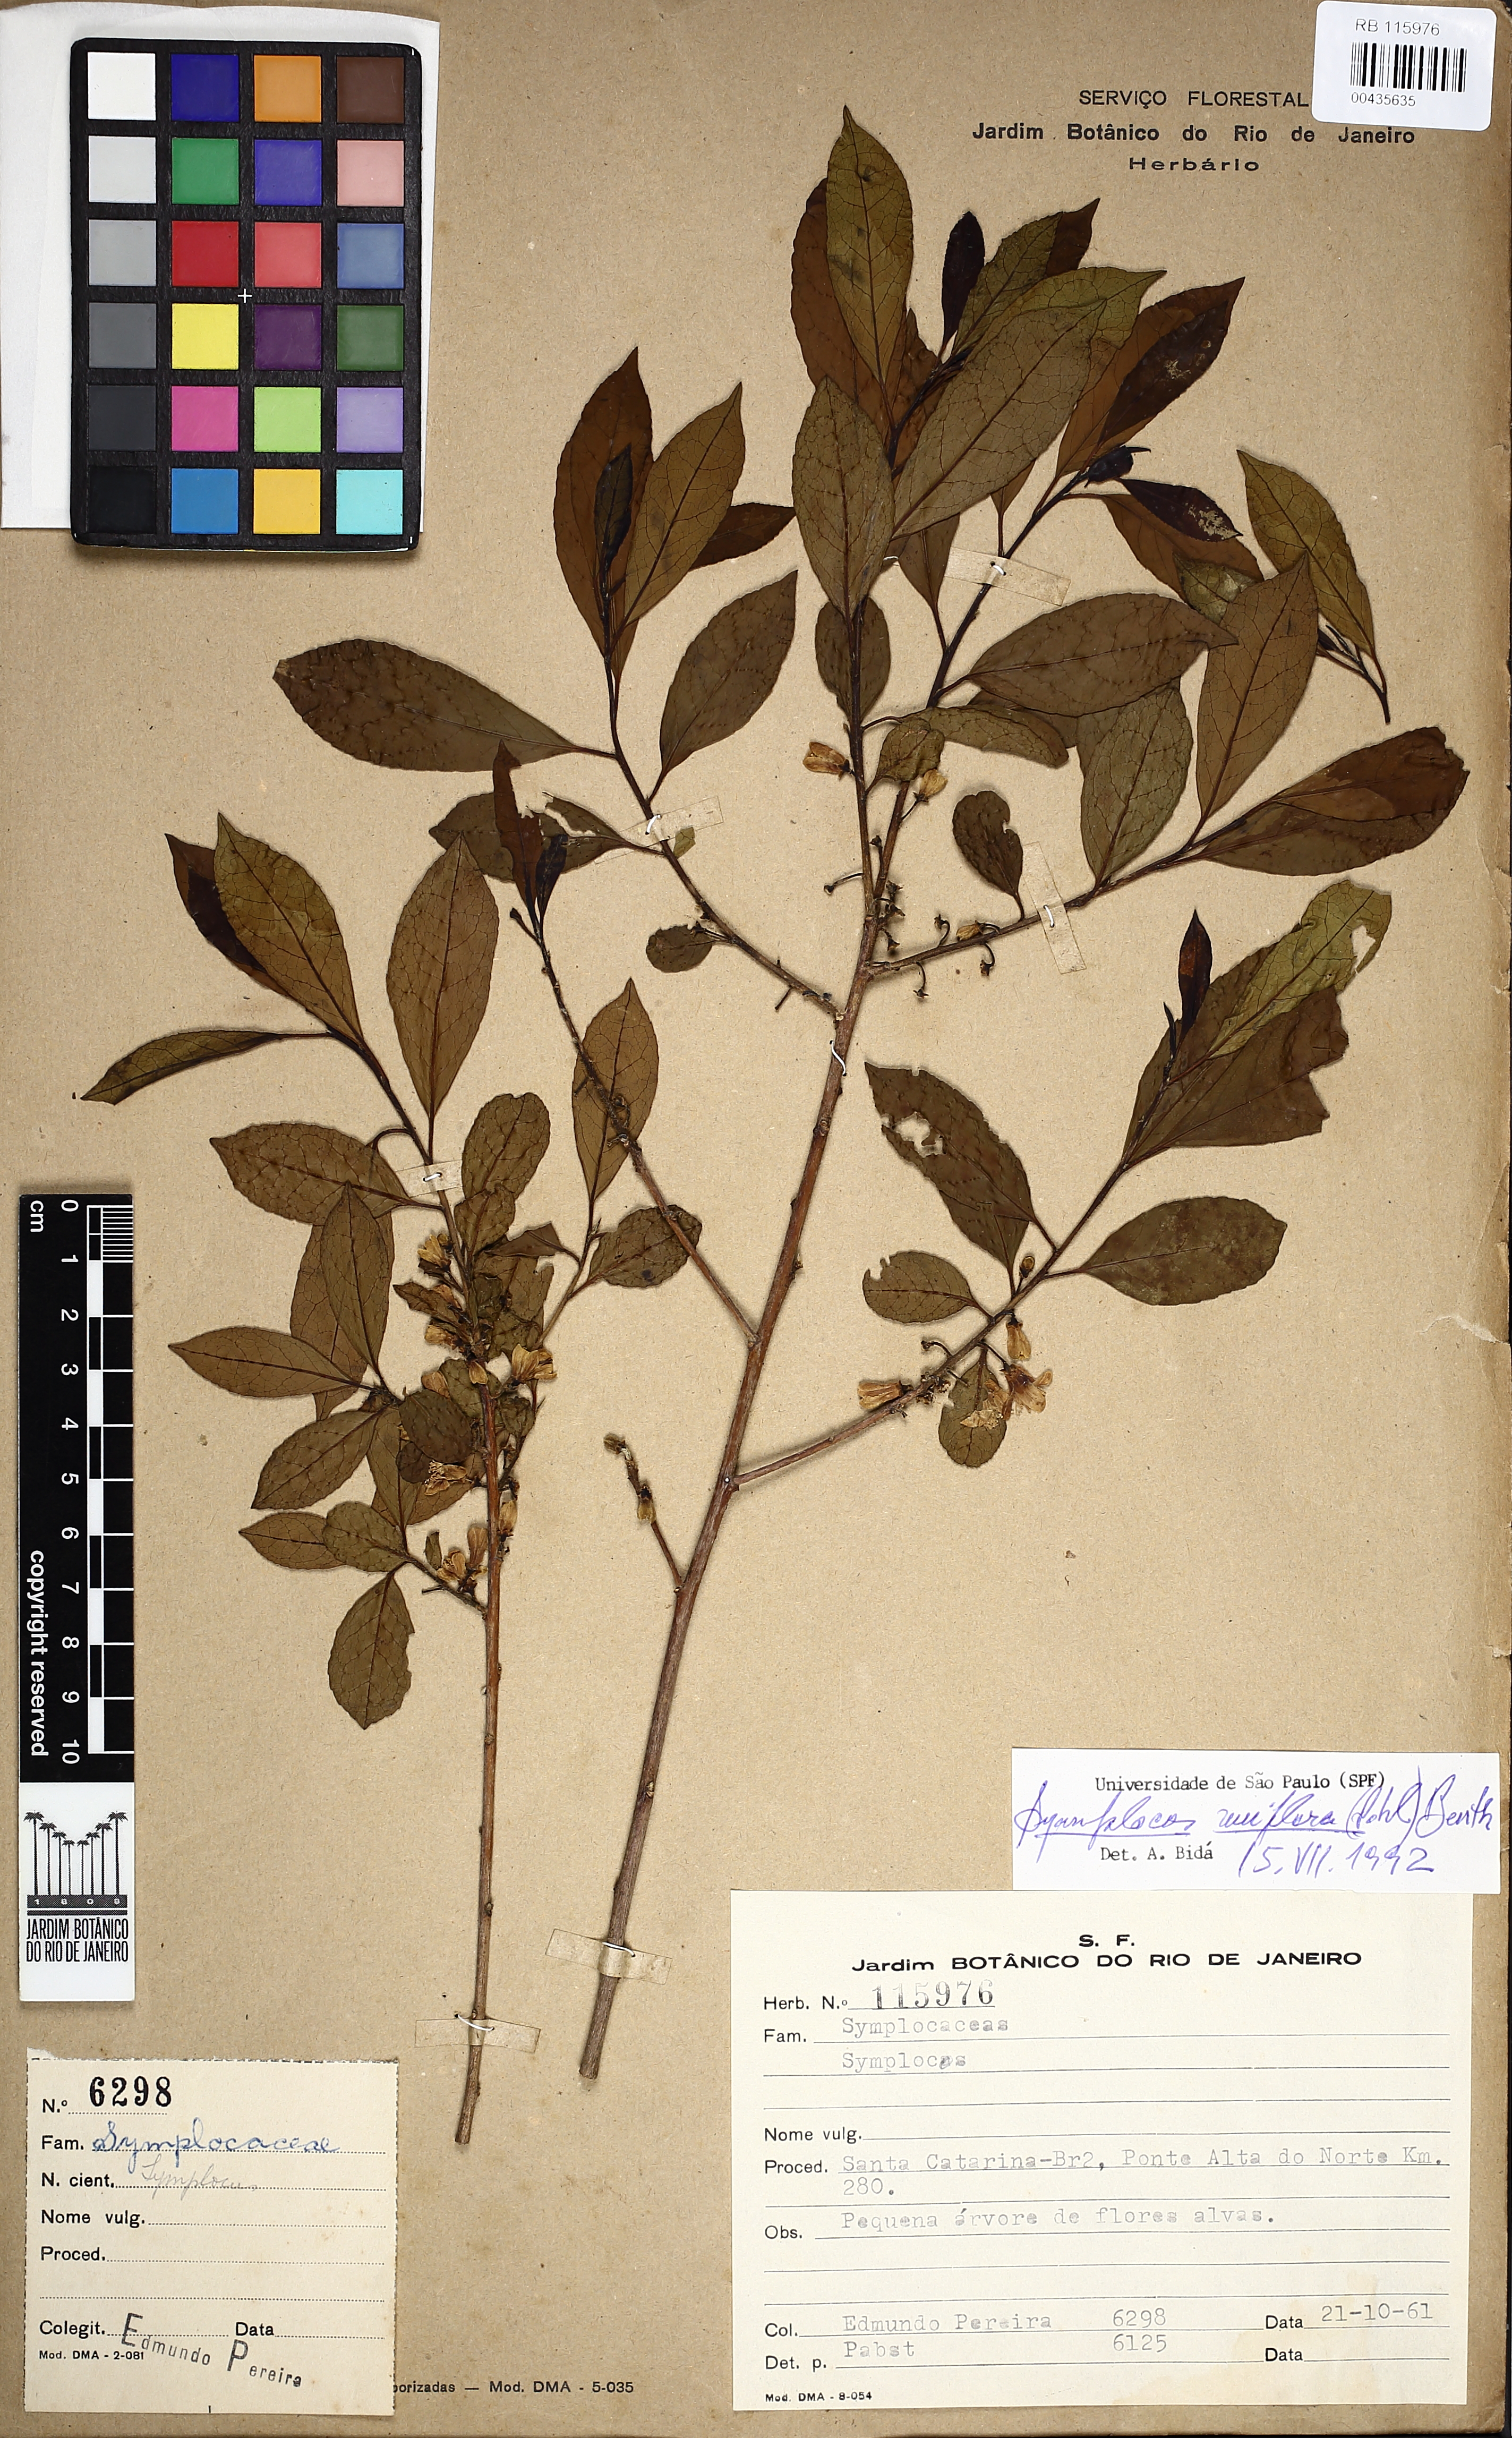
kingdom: Plantae
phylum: Tracheophyta
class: Magnoliopsida
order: Ericales
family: Symplocaceae
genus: Symplocos
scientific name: Symplocos uniflora
